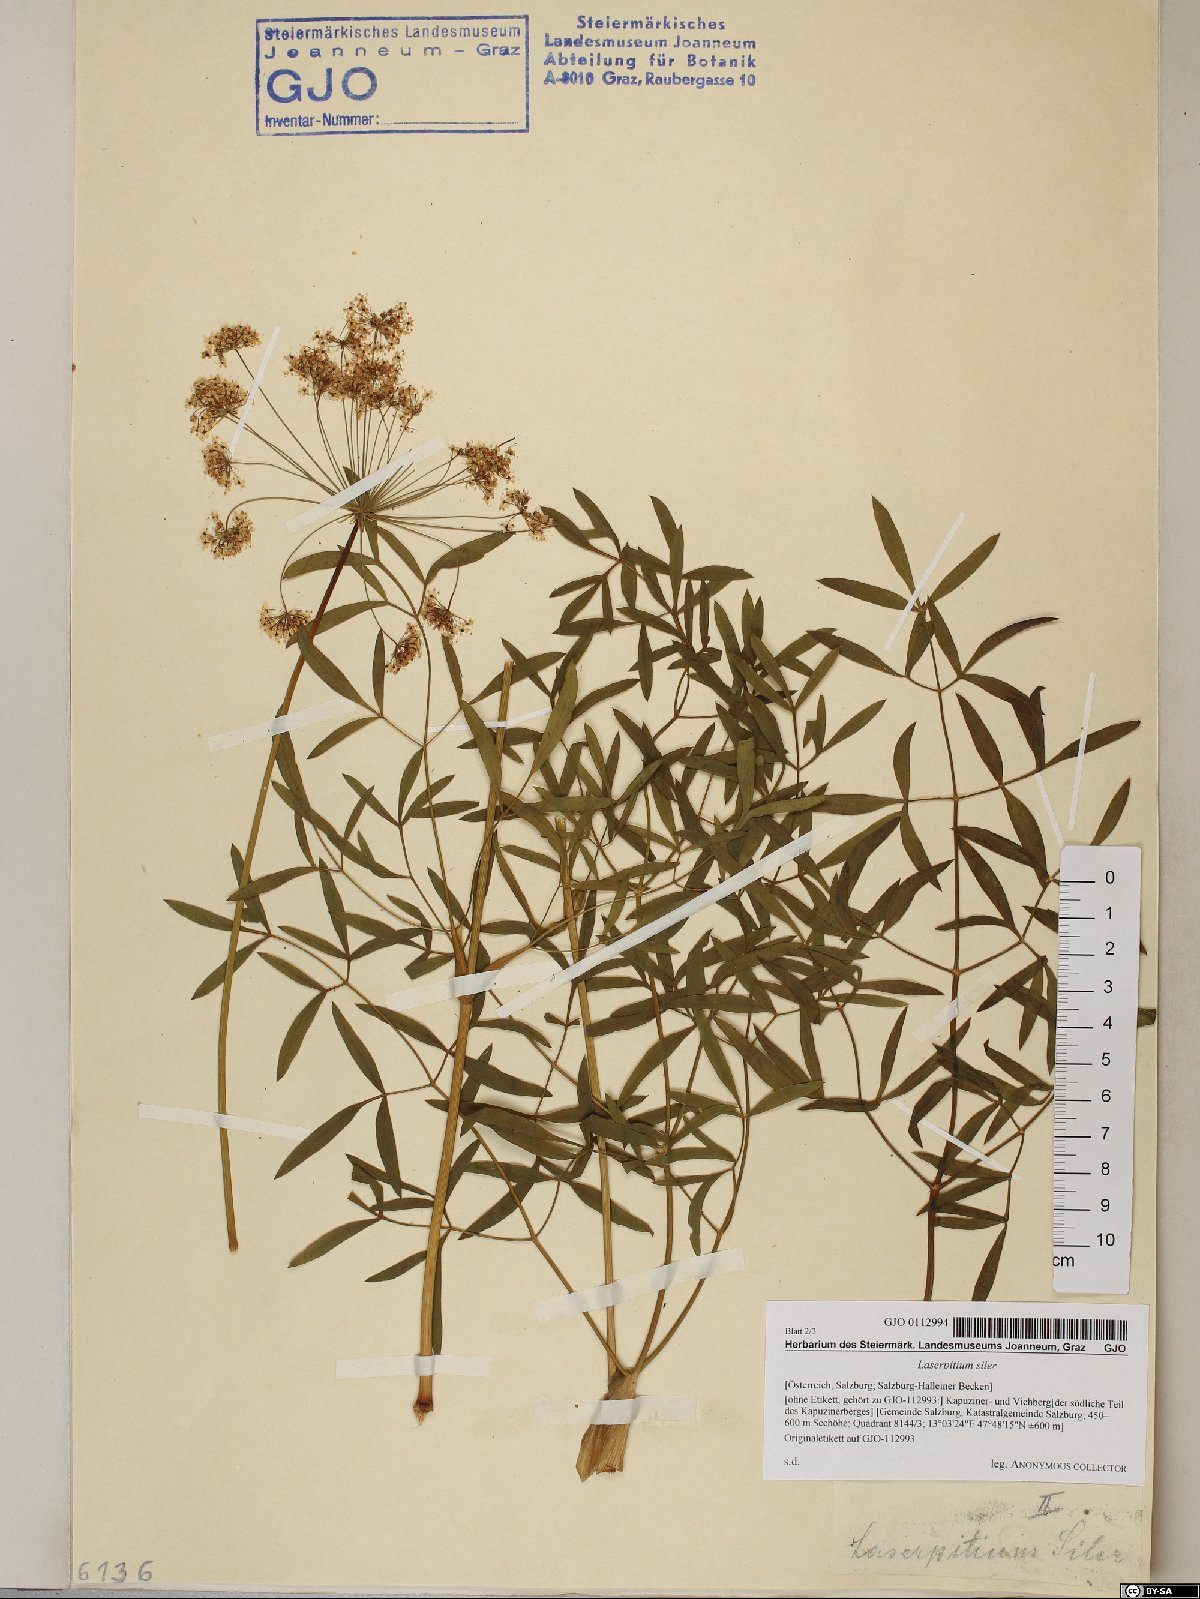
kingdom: Plantae
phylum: Tracheophyta
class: Magnoliopsida
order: Apiales
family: Apiaceae
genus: Siler
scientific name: Siler montanum
